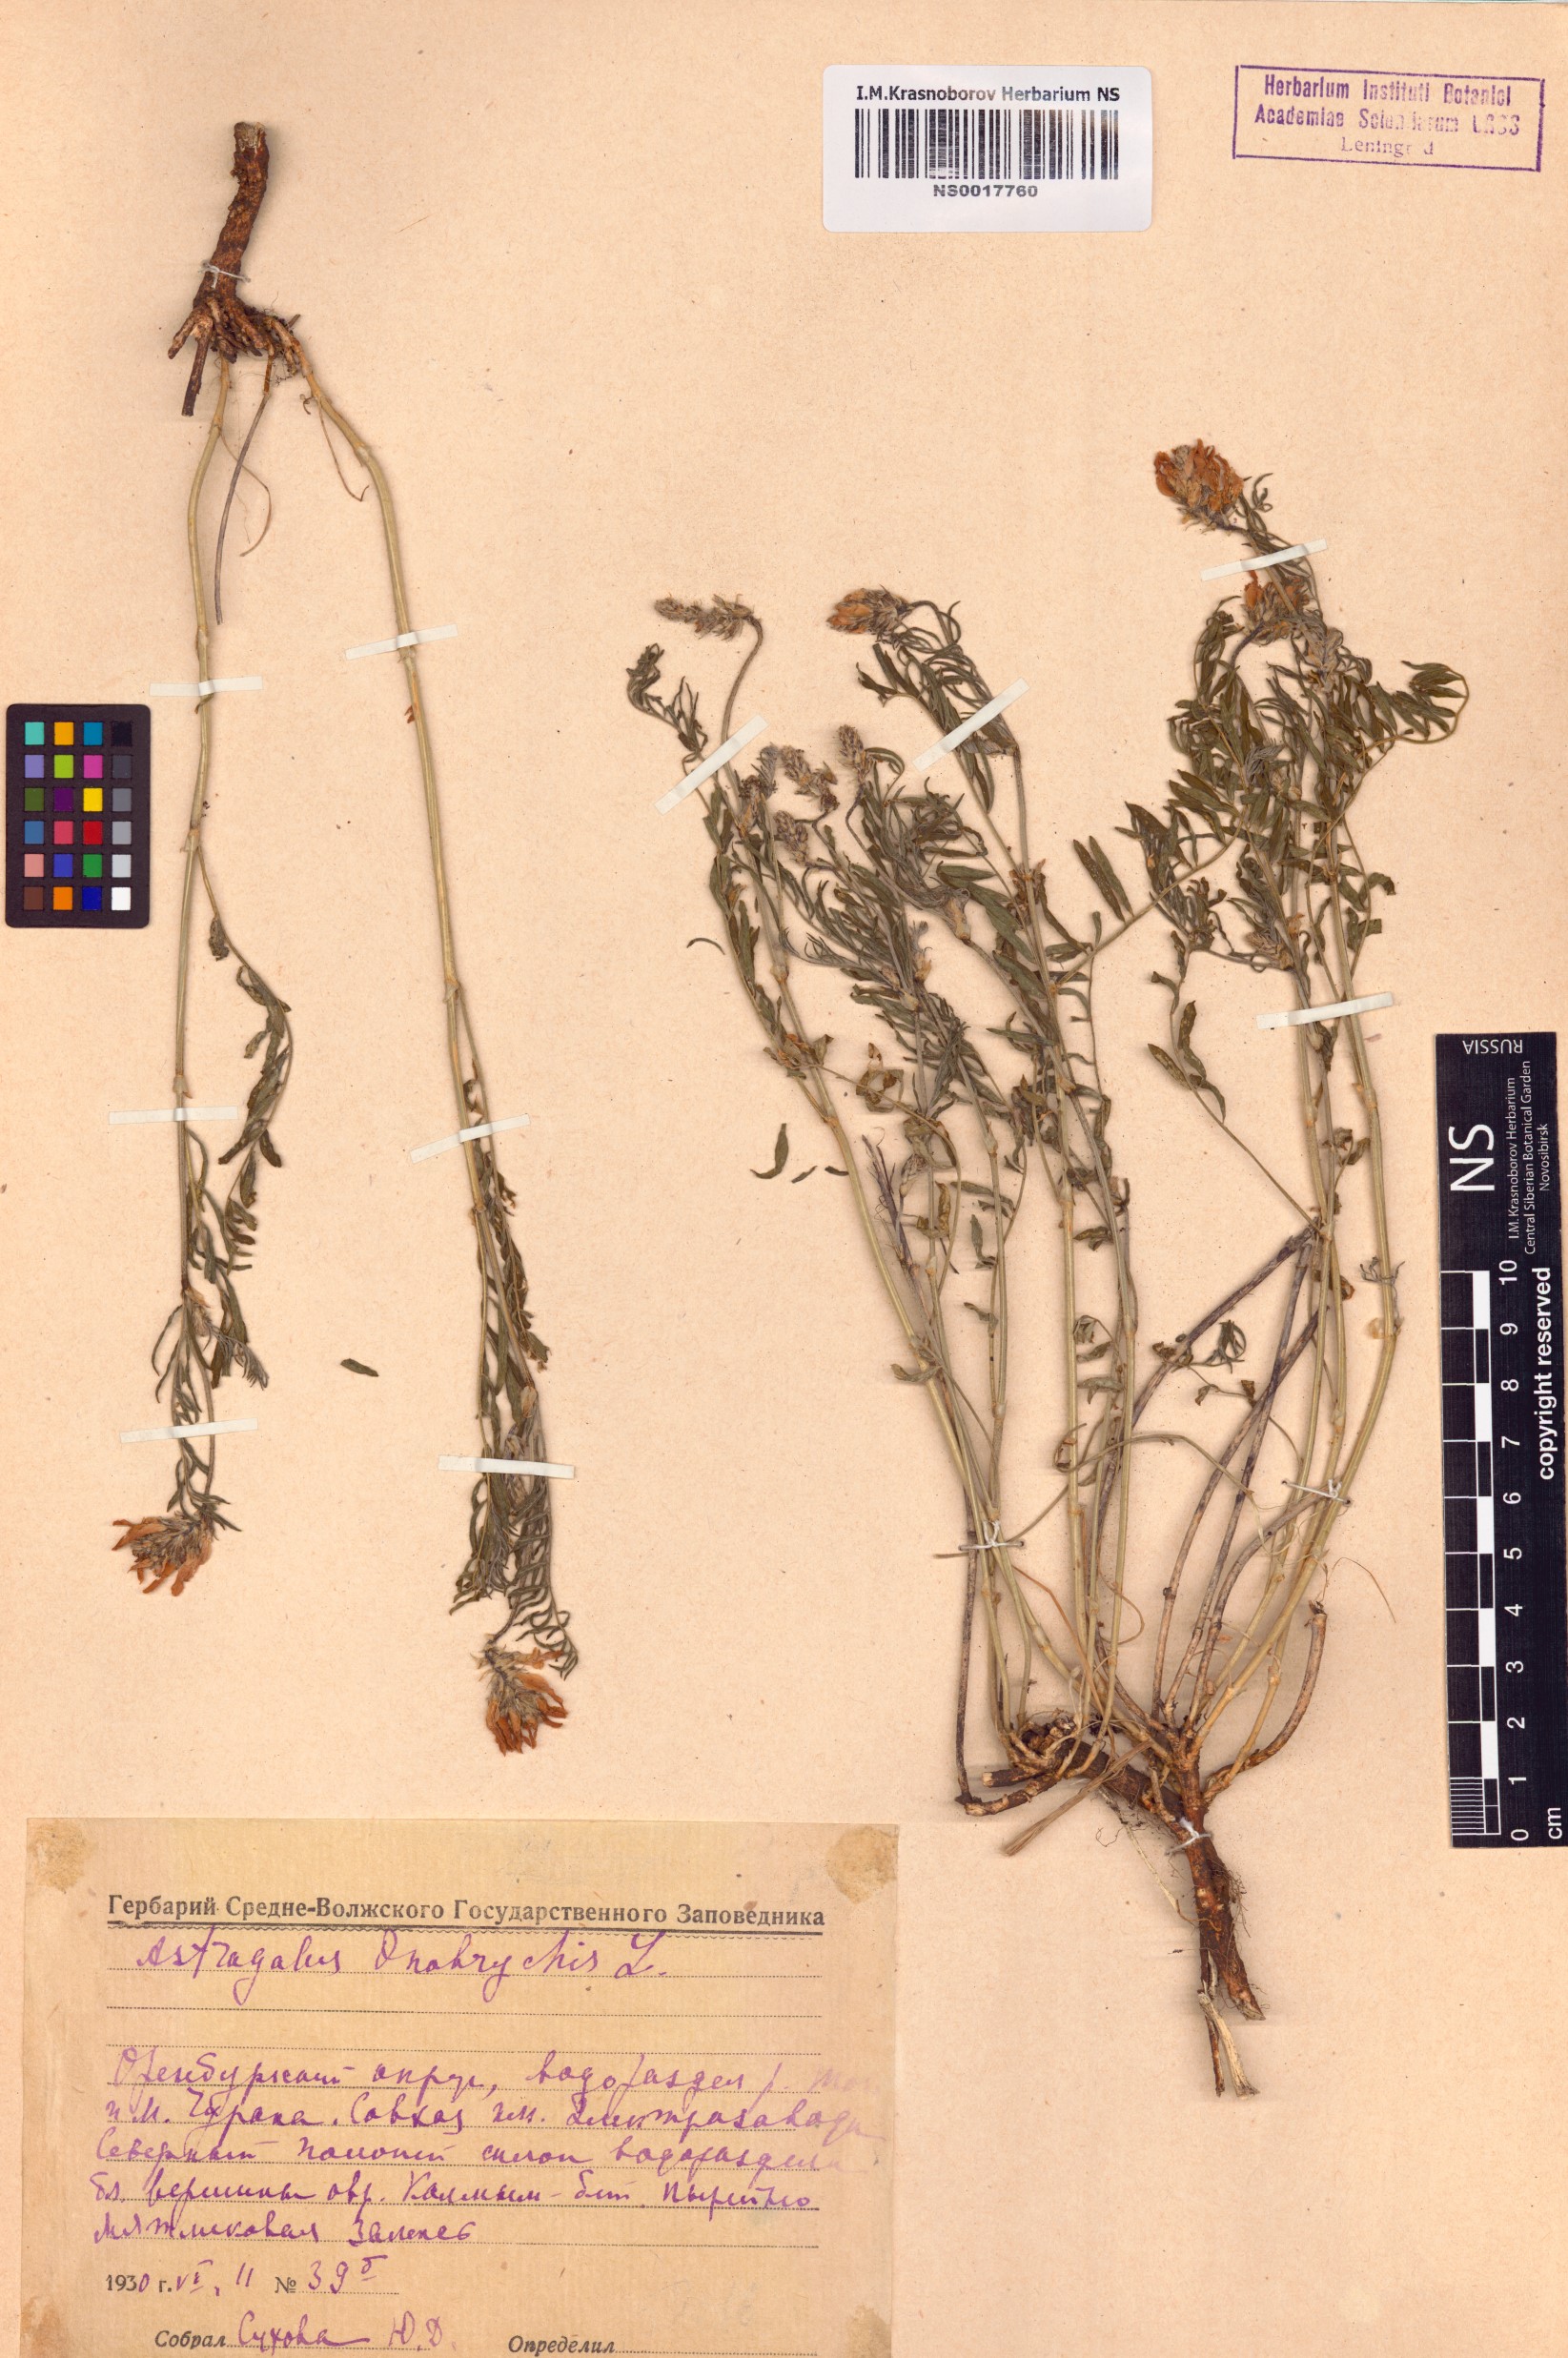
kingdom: Plantae
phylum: Tracheophyta
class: Magnoliopsida
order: Fabales
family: Fabaceae
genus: Astragalus
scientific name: Astragalus onobrychis
